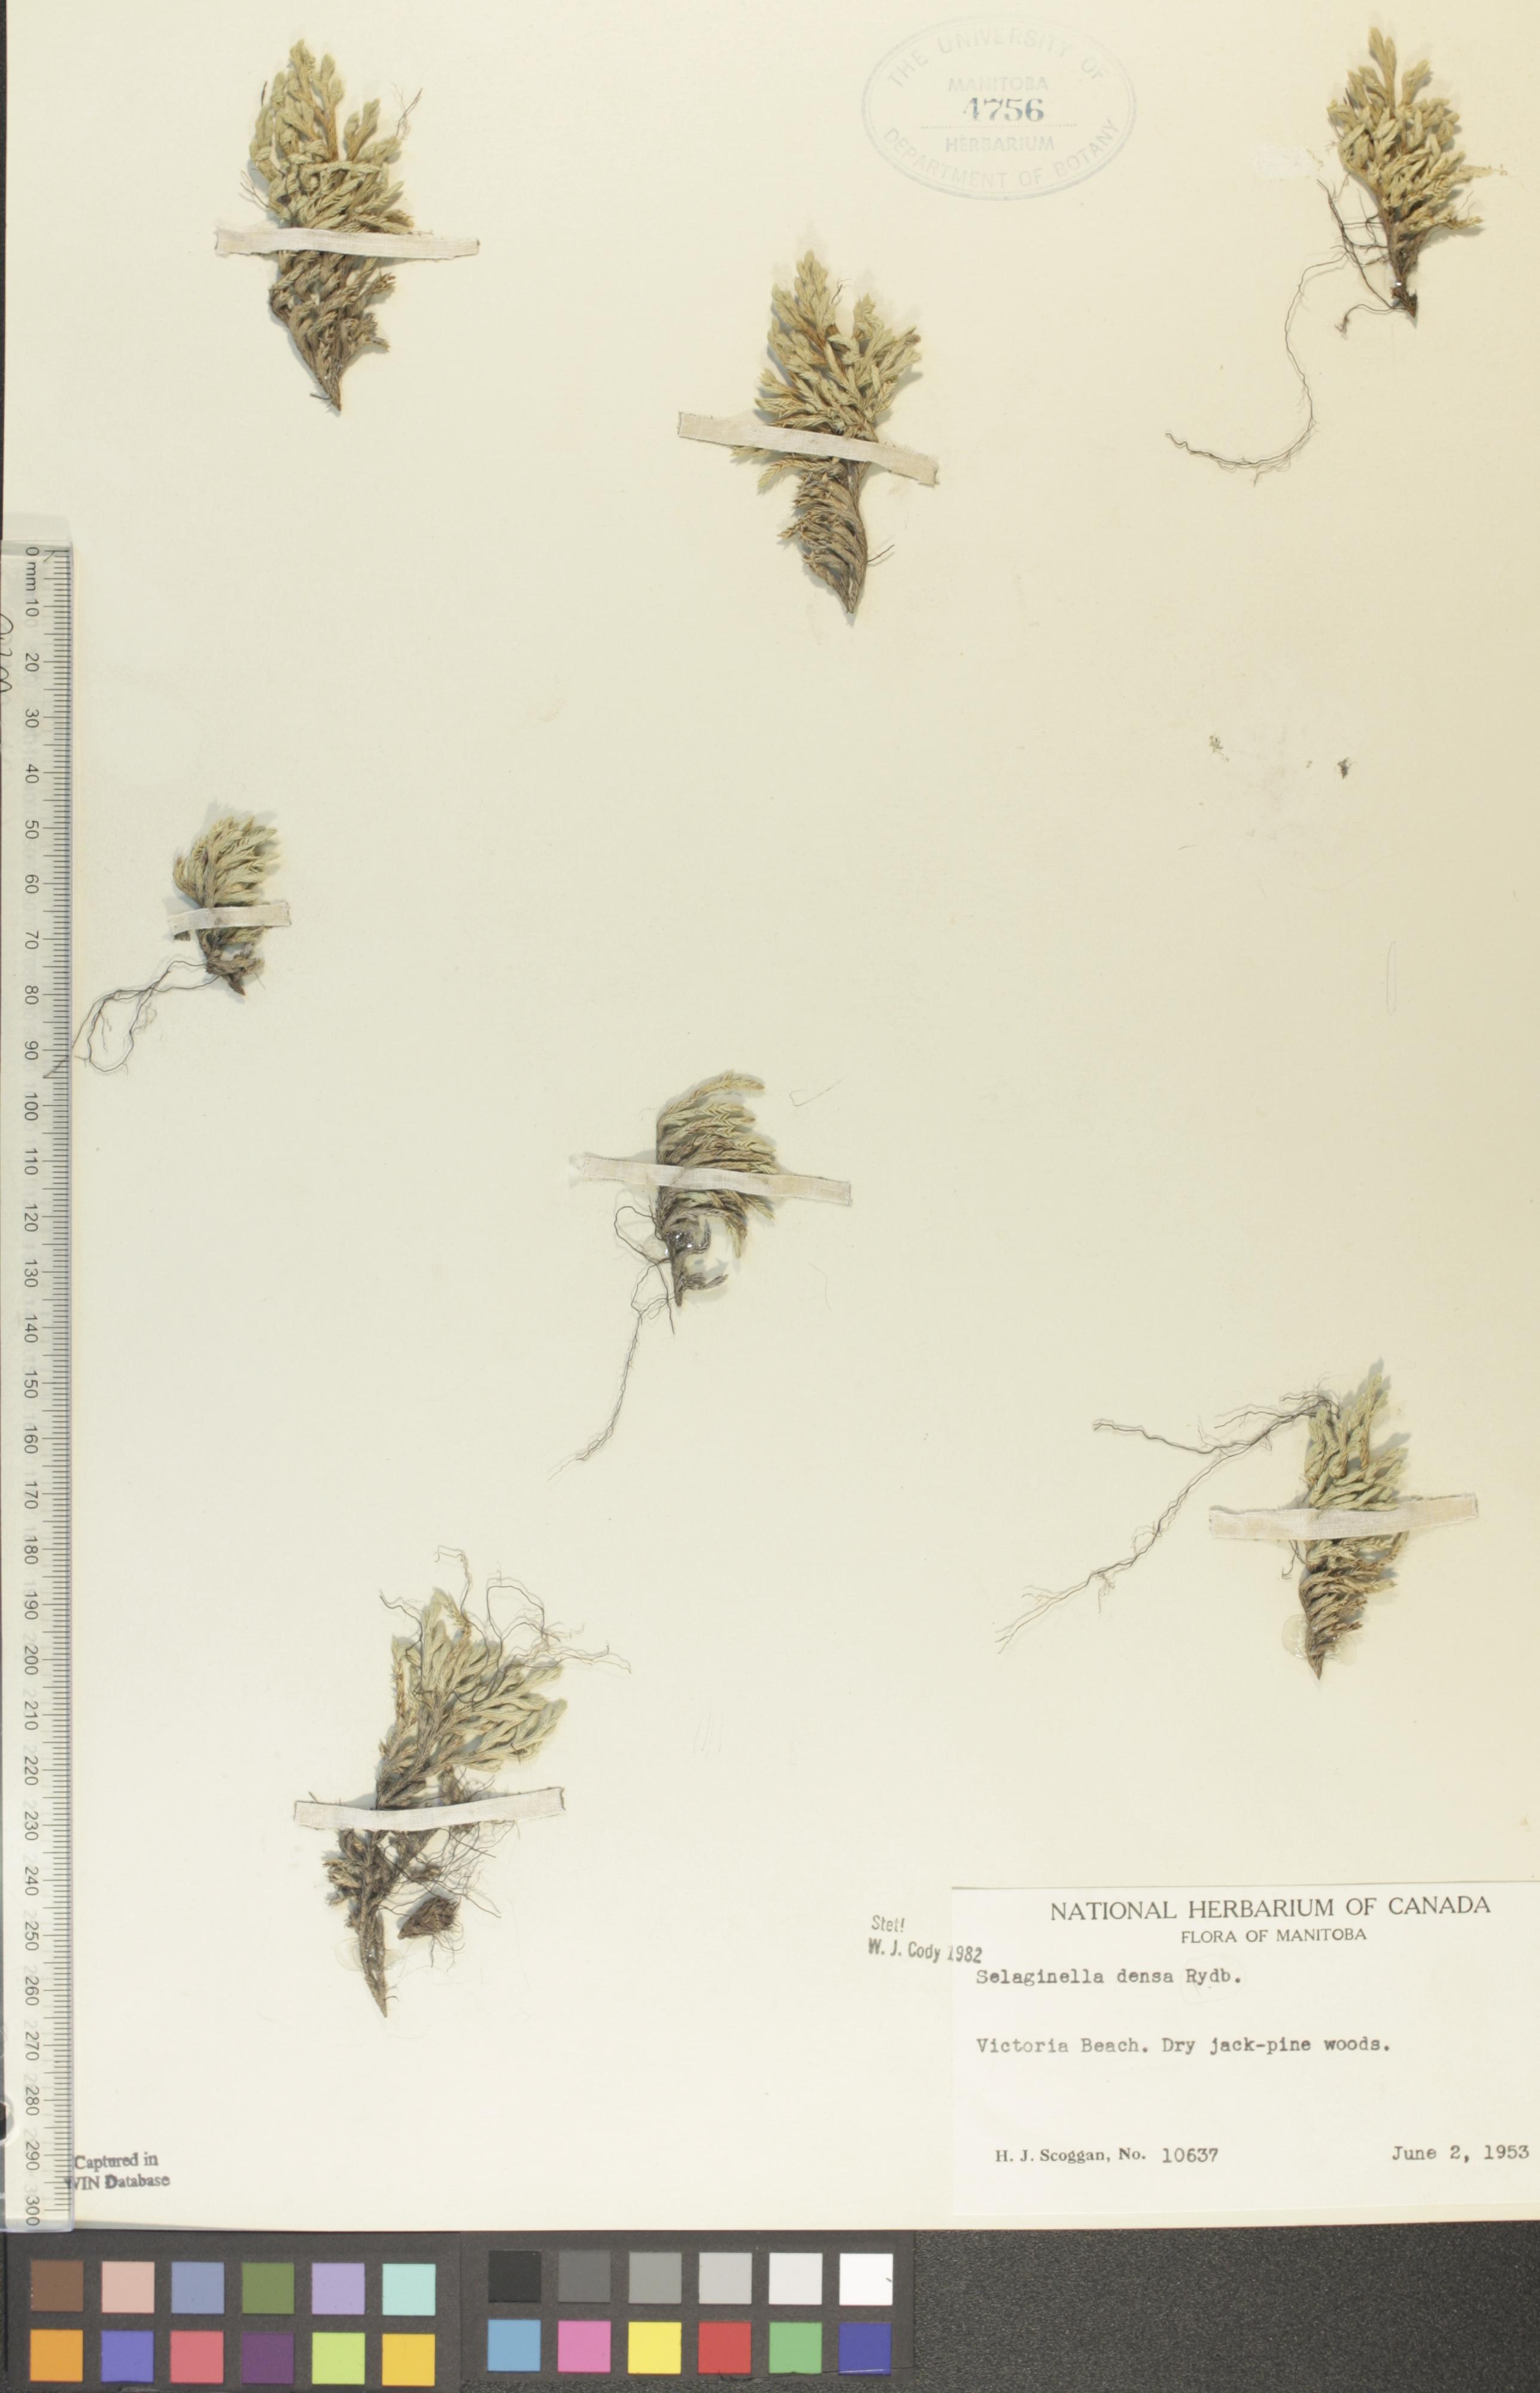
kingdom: Plantae
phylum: Tracheophyta
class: Lycopodiopsida
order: Selaginellales
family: Selaginellaceae
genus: Selaginella
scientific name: Selaginella densa
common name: Mountain spike-moss
